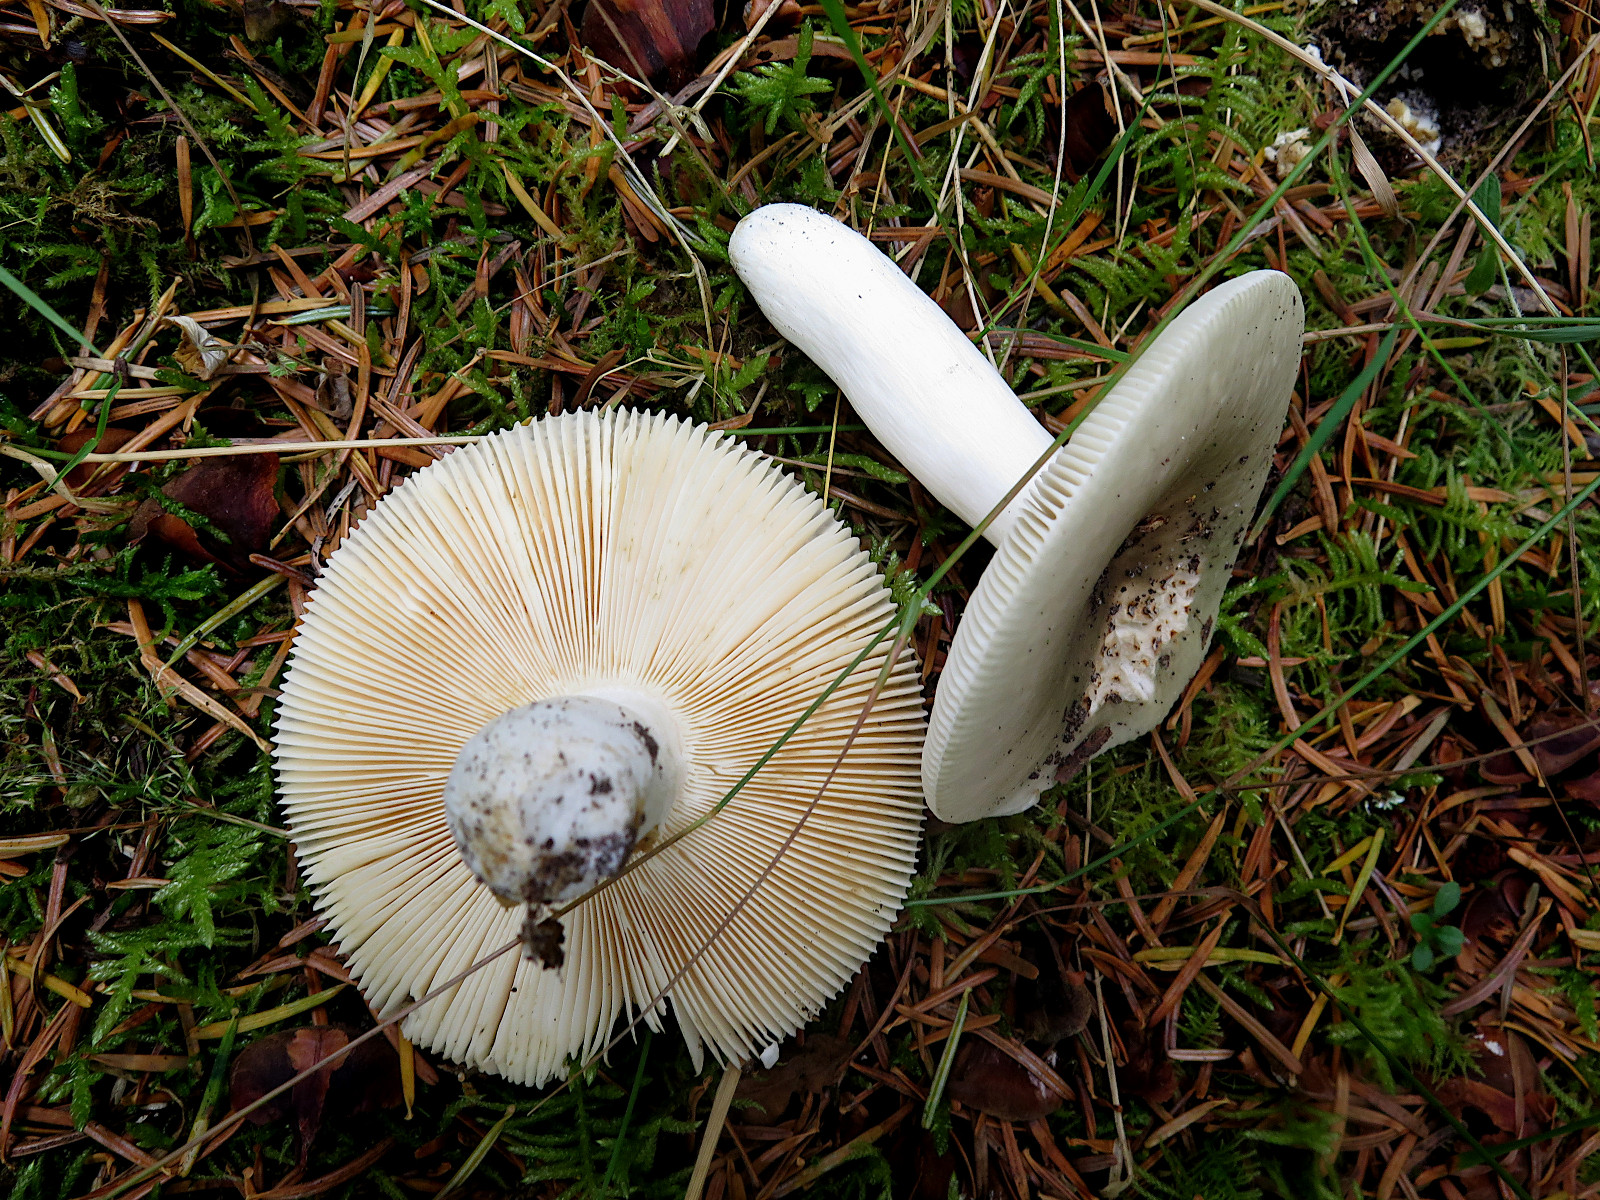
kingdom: Fungi
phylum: Basidiomycota
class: Agaricomycetes
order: Russulales
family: Russulaceae
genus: Russula
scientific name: Russula aeruginea
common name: græsgrøn skørhat
